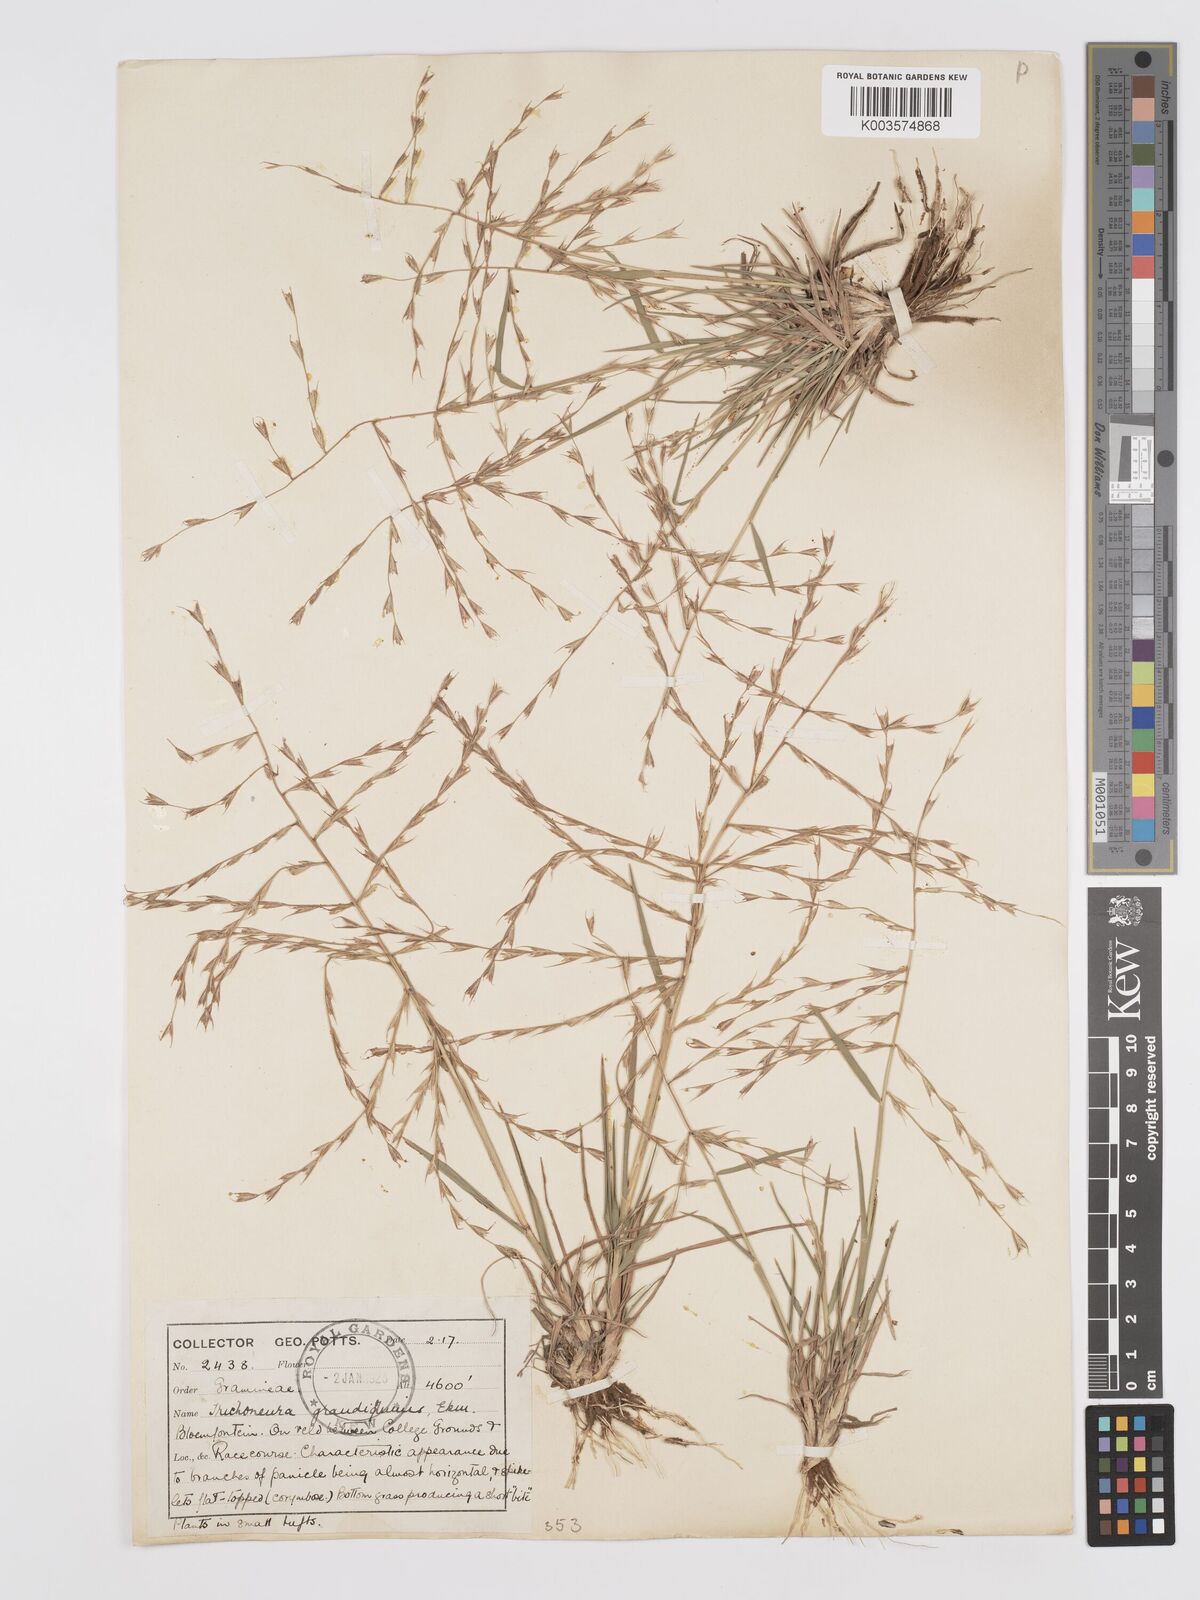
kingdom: Plantae
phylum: Tracheophyta
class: Liliopsida
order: Poales
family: Poaceae
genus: Trichoneura
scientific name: Trichoneura grandiglumis
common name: Rolling grass
